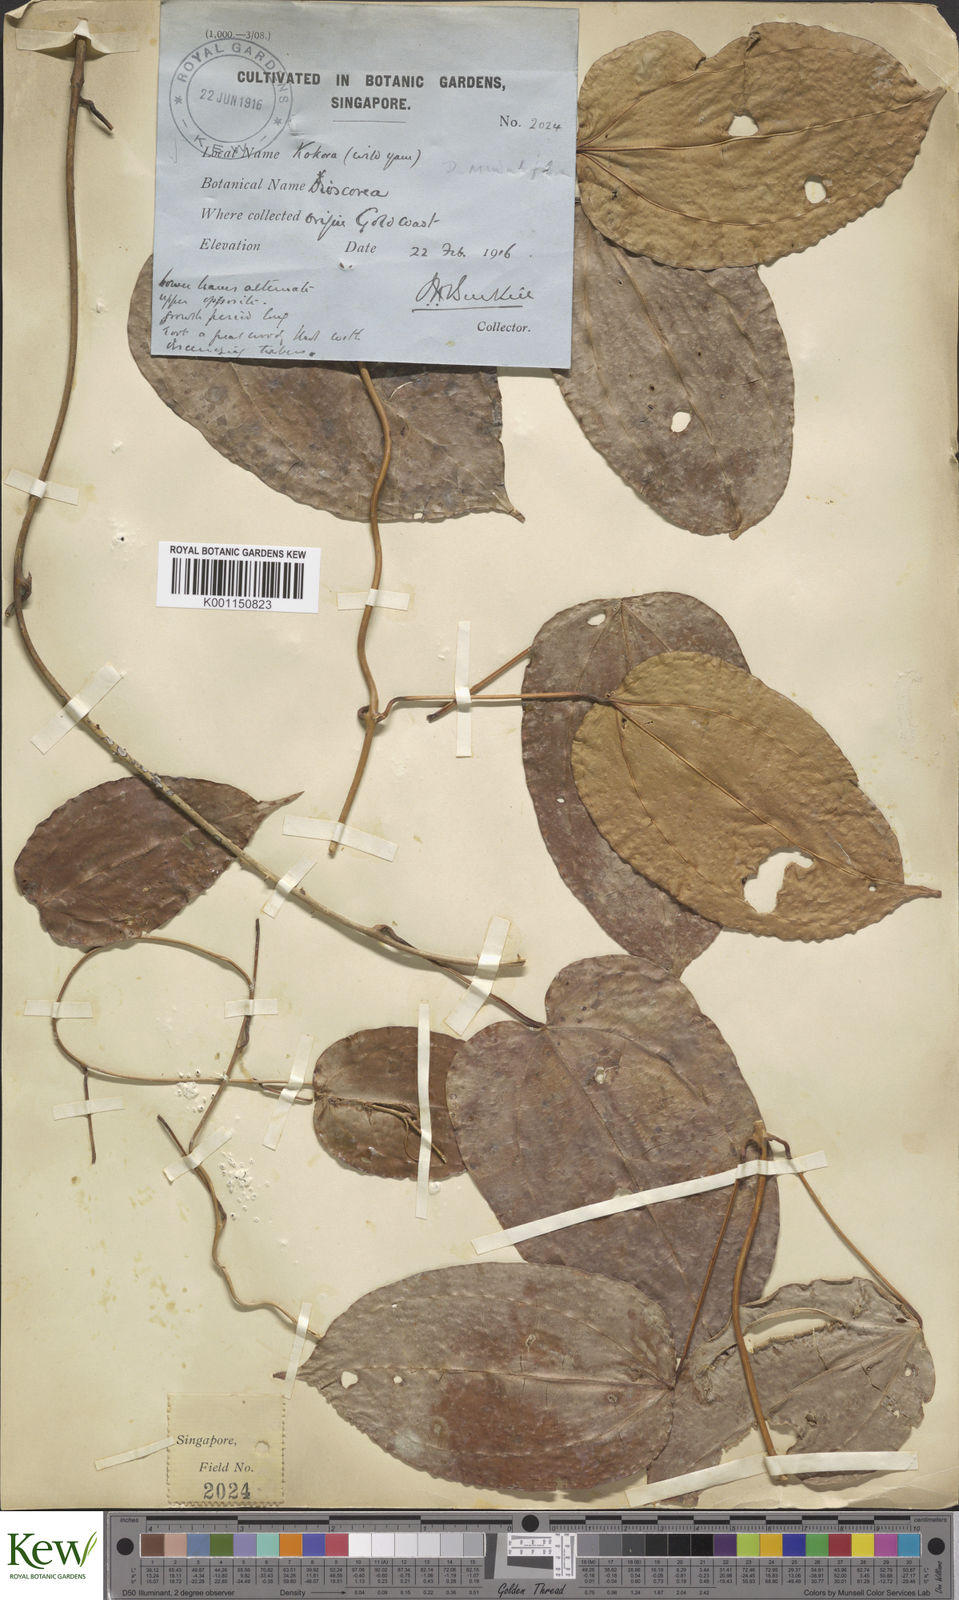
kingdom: Plantae
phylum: Tracheophyta
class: Liliopsida
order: Dioscoreales
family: Dioscoreaceae
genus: Dioscorea
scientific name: Dioscorea minutiflora
